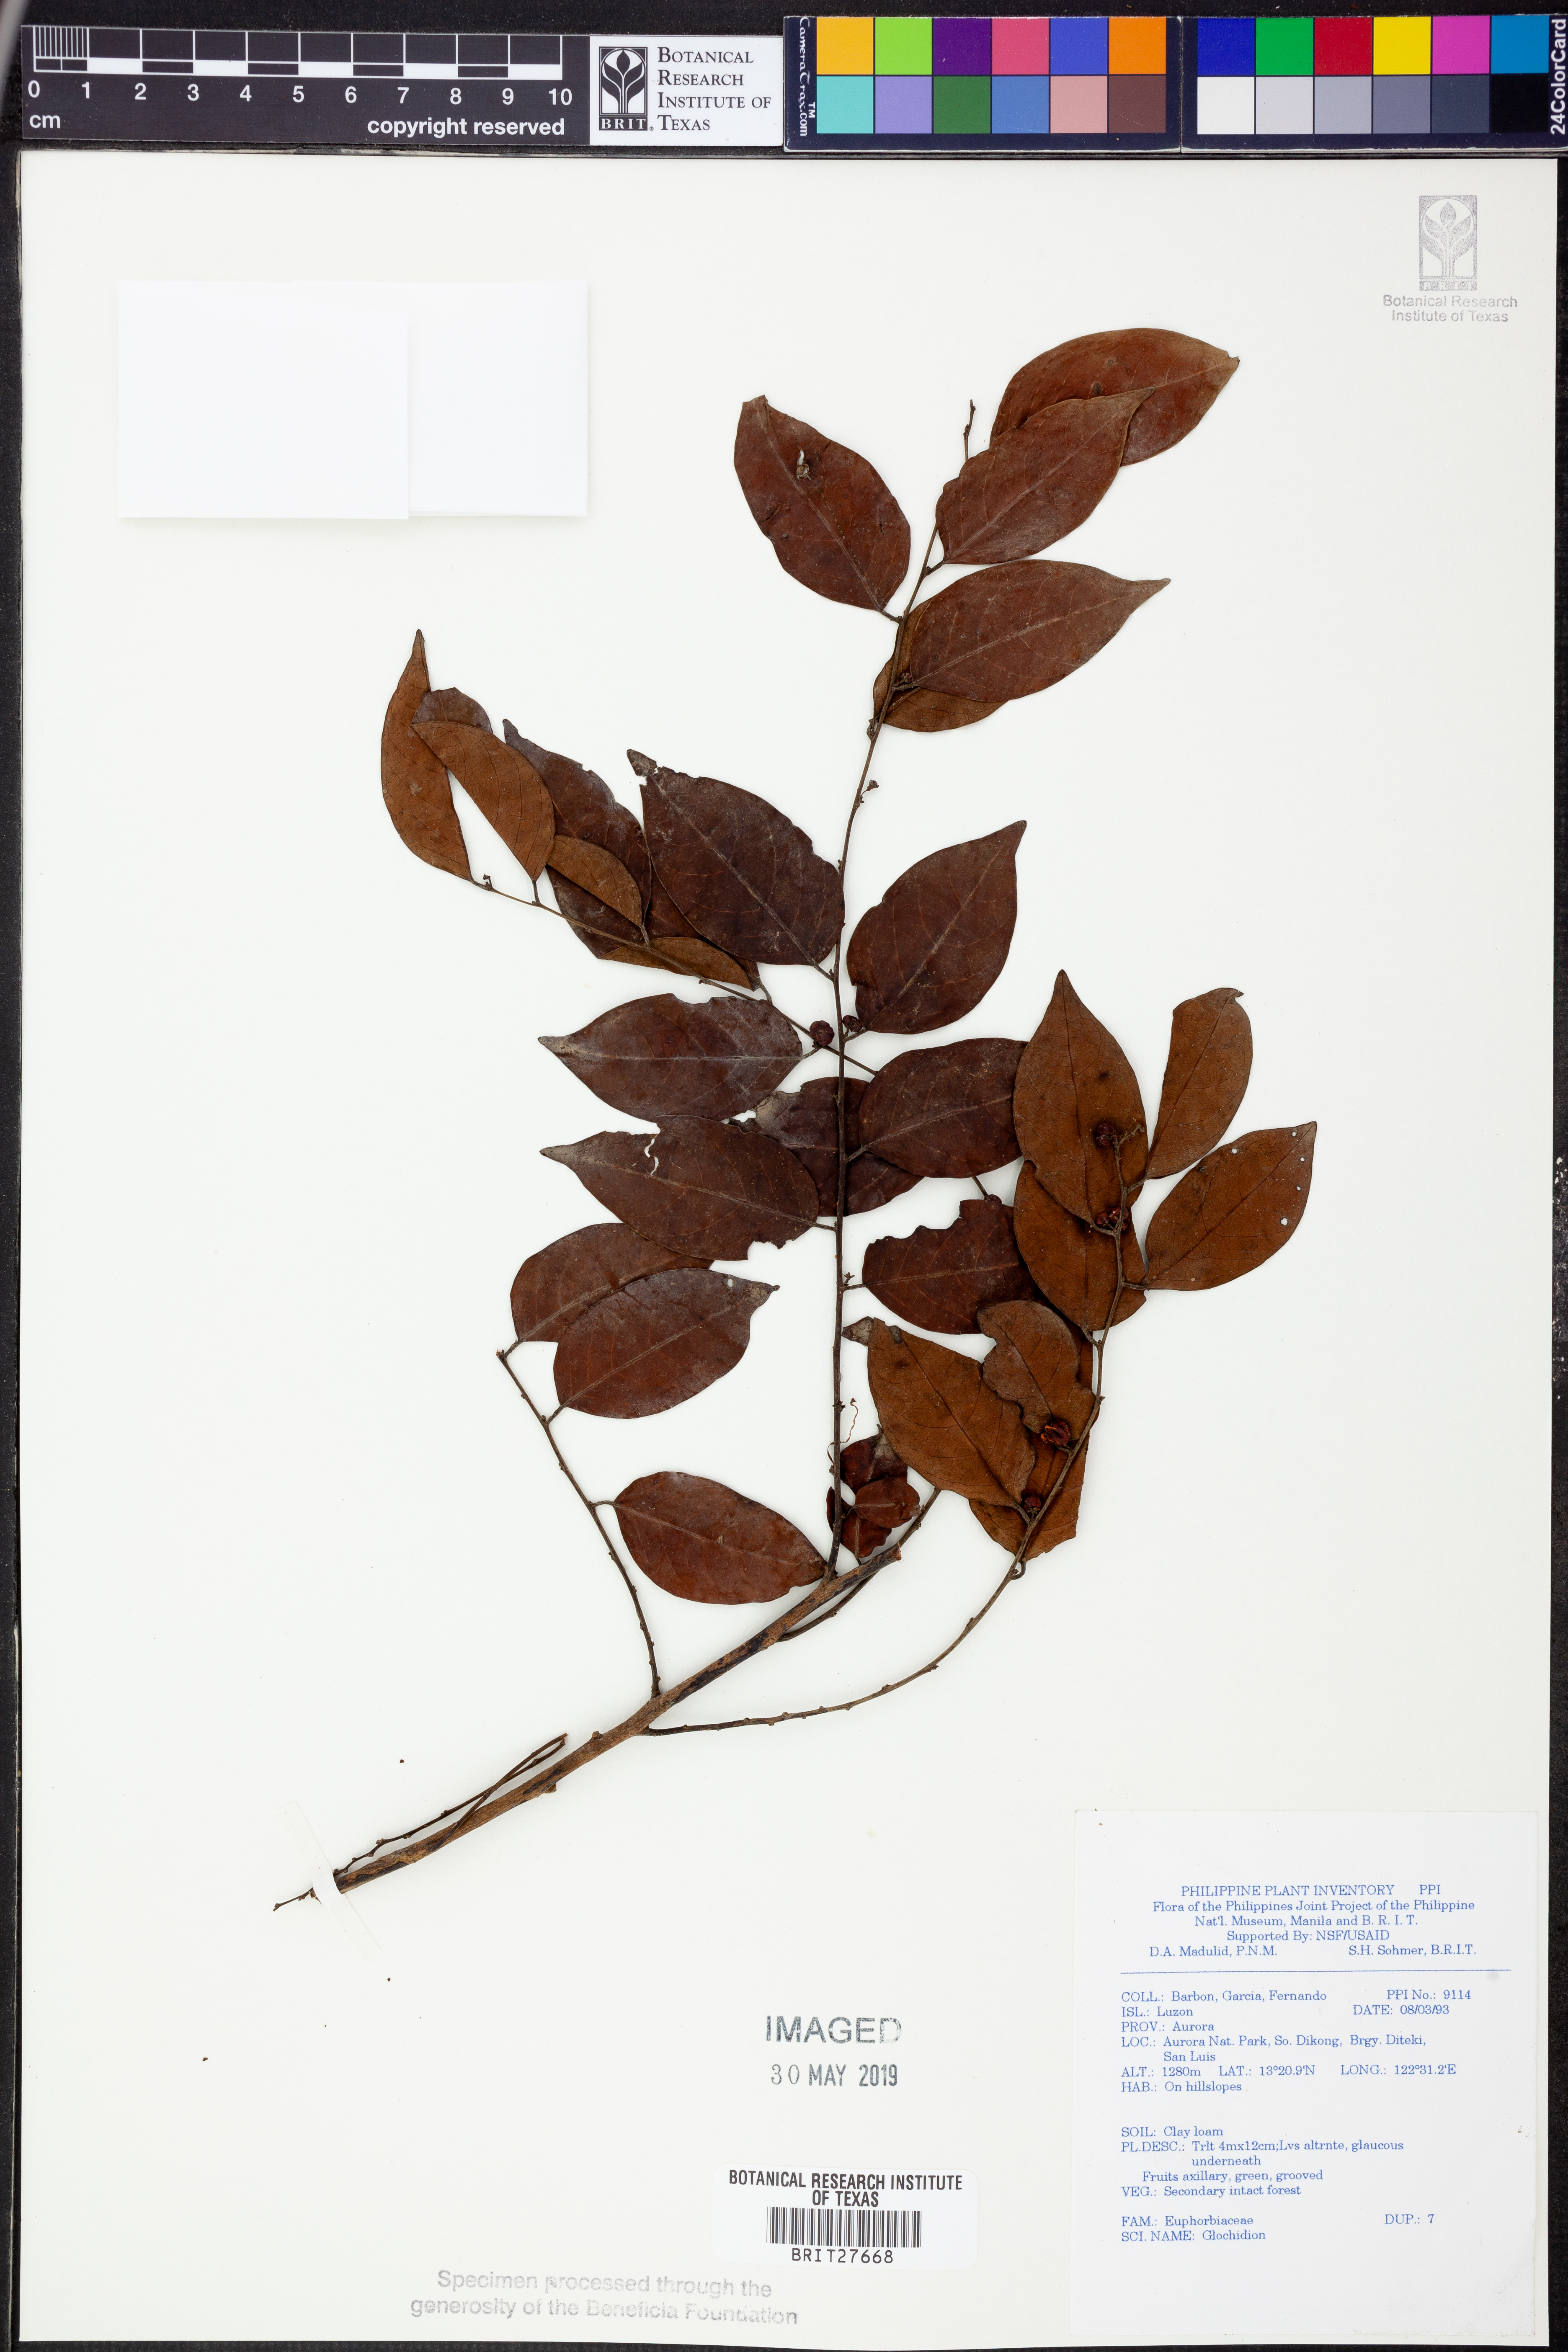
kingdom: Plantae
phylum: Tracheophyta
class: Magnoliopsida
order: Malpighiales
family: Phyllanthaceae
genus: Glochidion
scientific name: Glochidion
